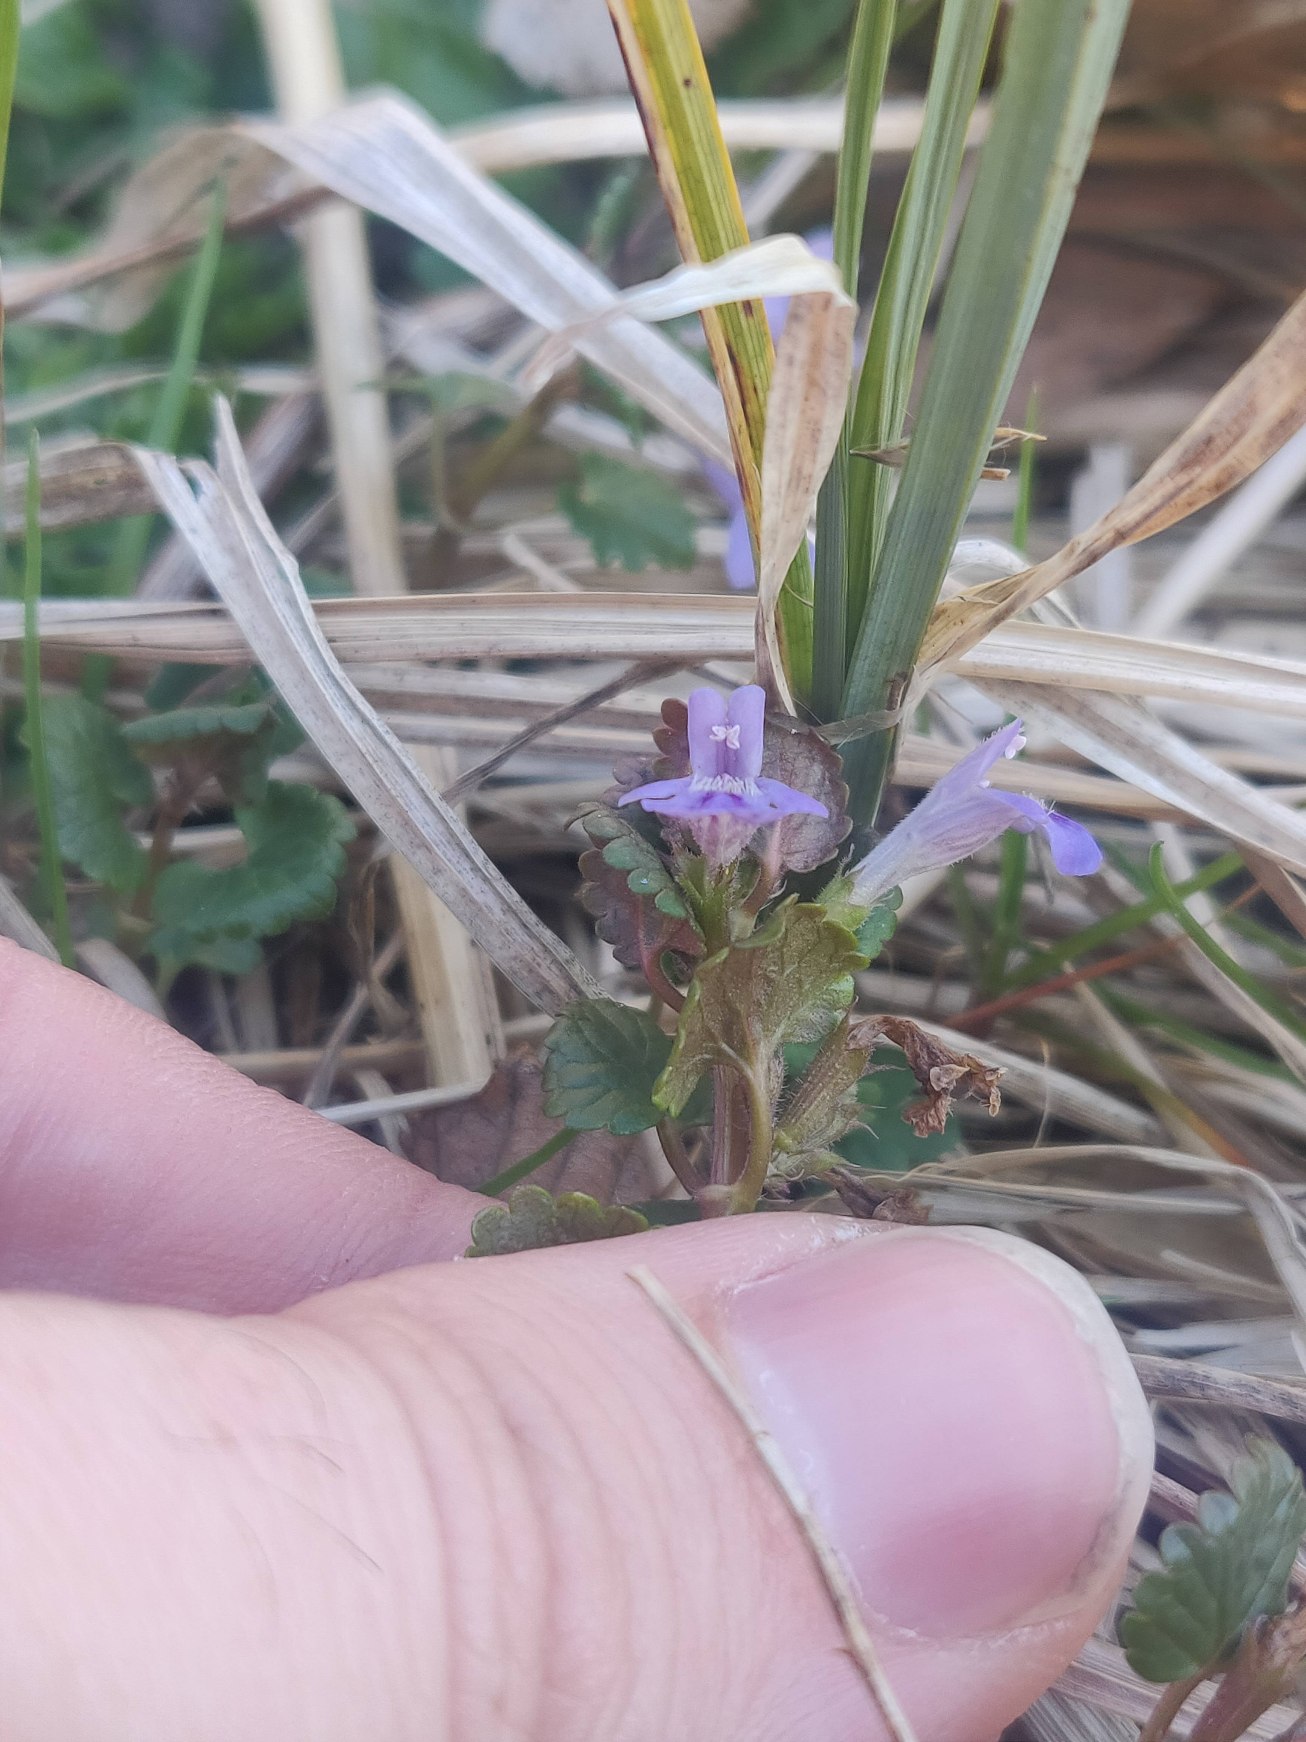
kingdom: Plantae
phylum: Tracheophyta
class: Magnoliopsida
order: Lamiales
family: Lamiaceae
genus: Glechoma
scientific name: Glechoma hederacea
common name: Korsknap
